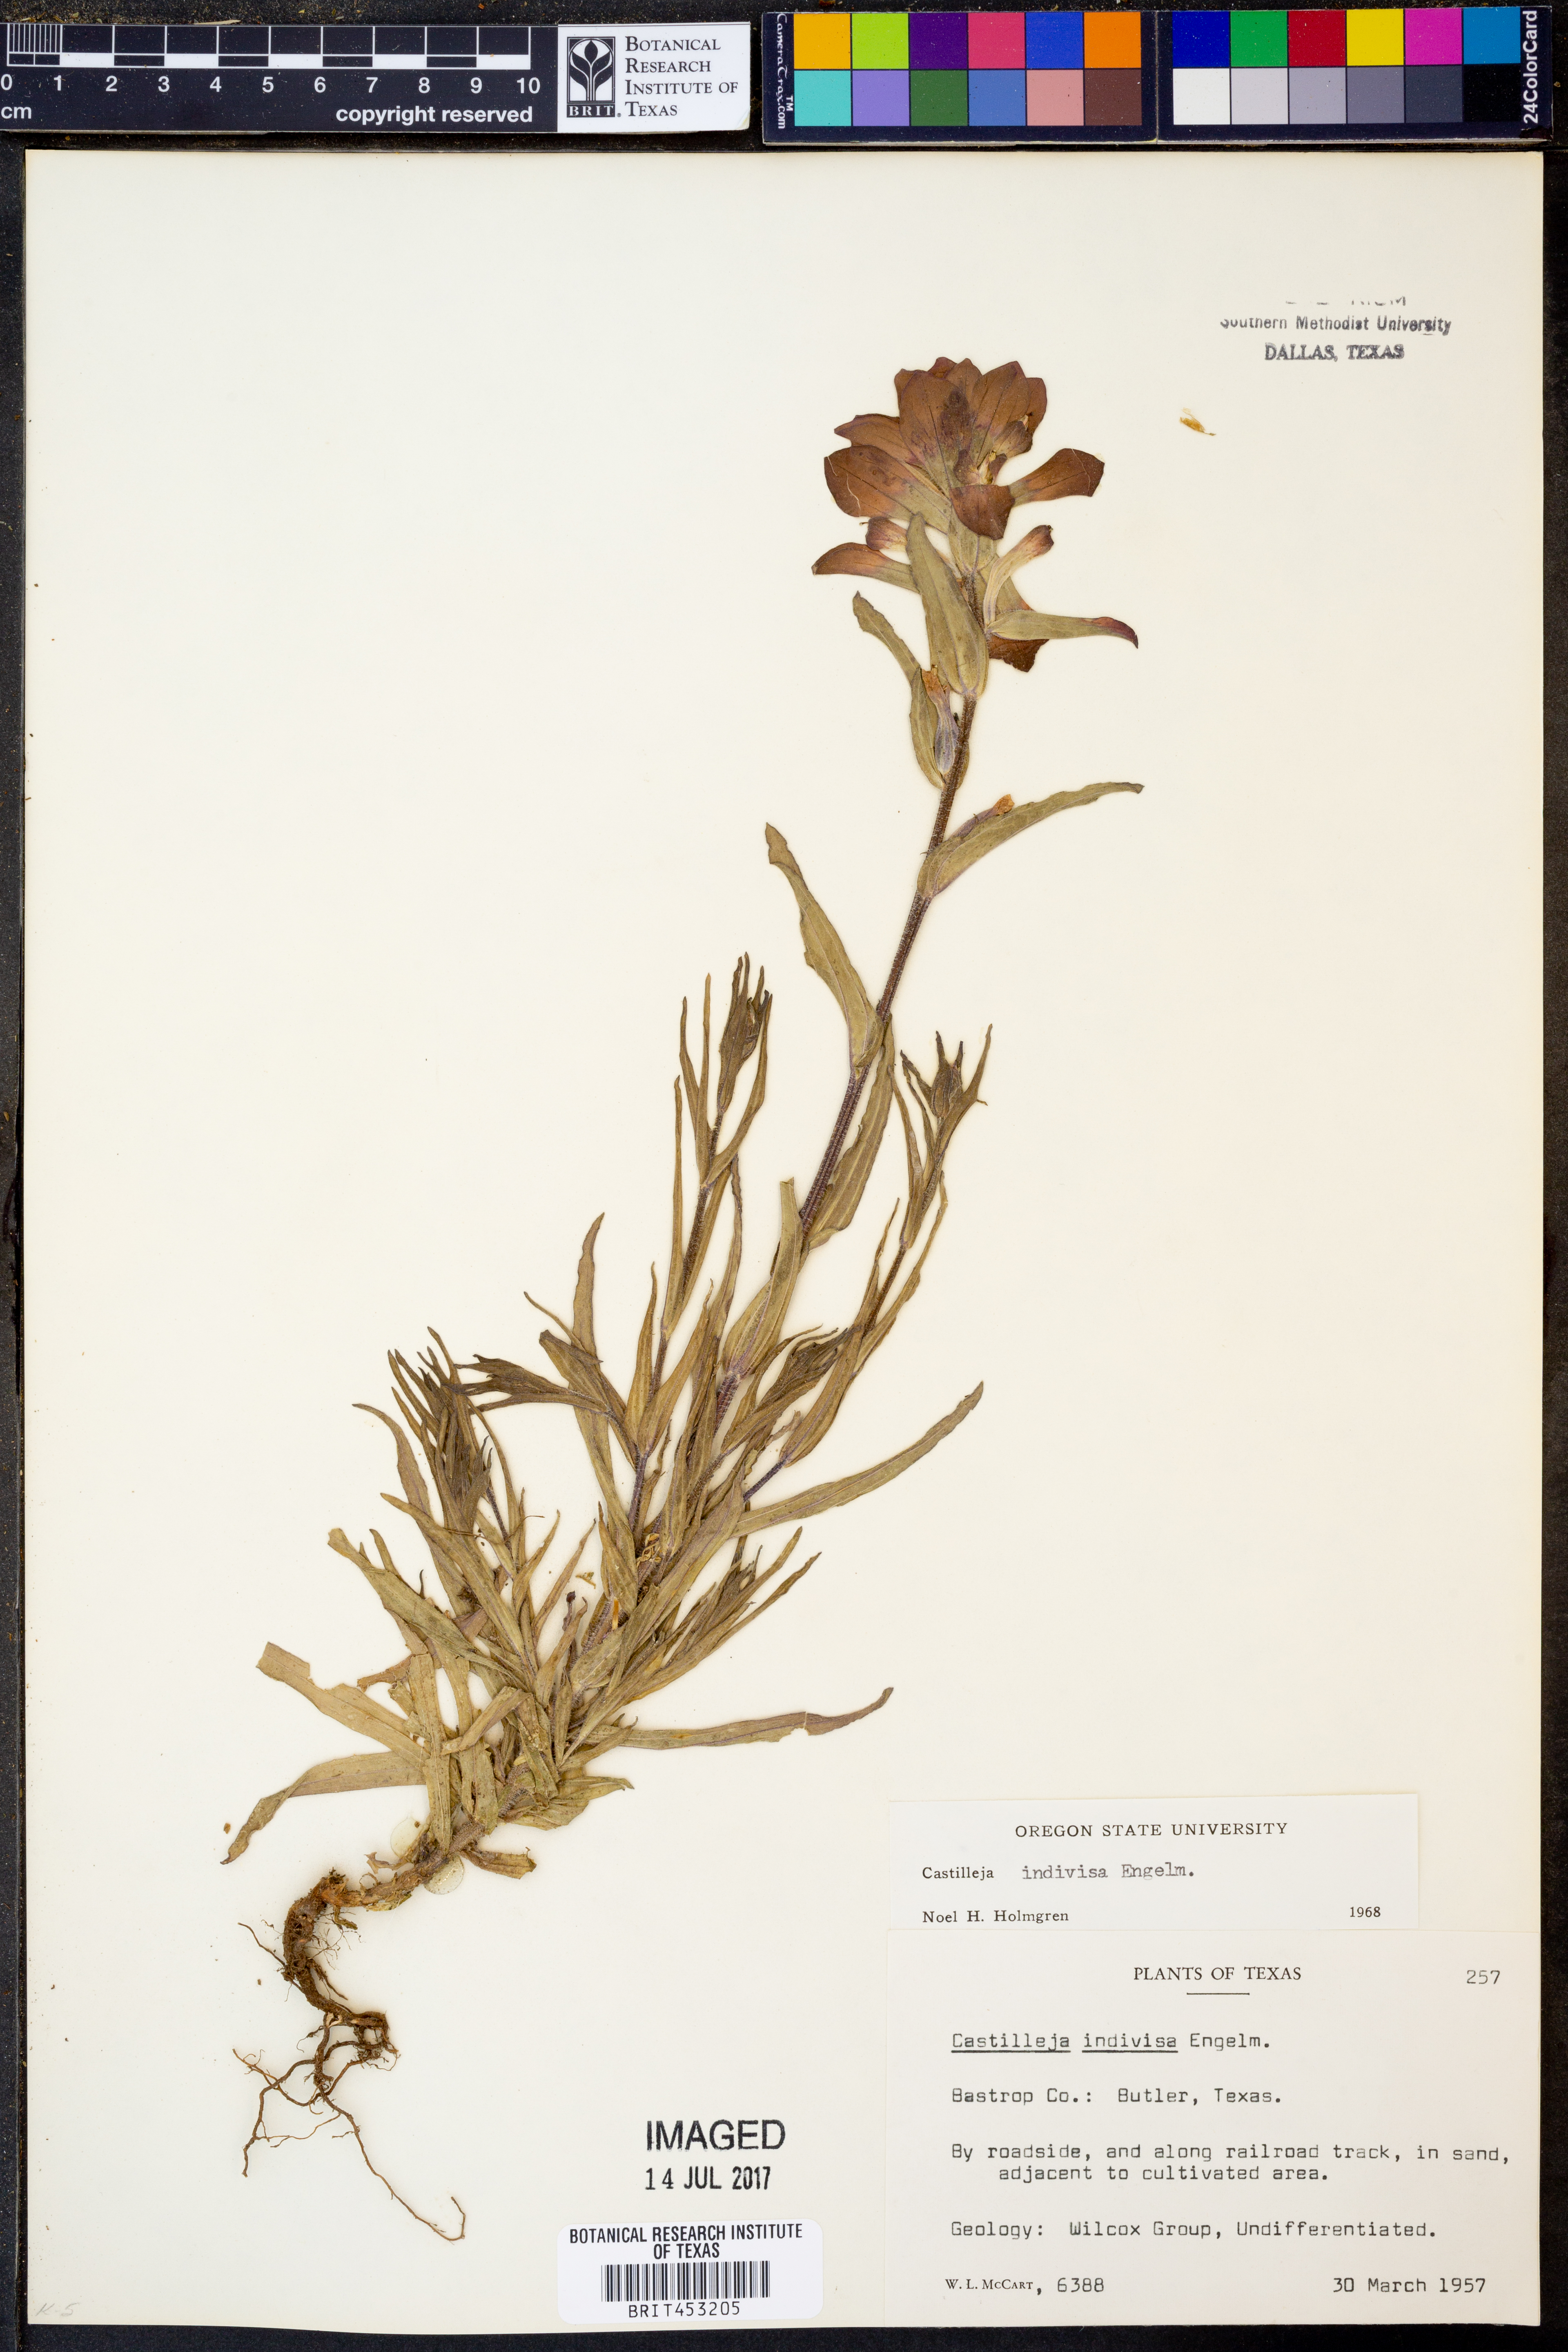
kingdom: Plantae
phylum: Tracheophyta
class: Magnoliopsida
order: Lamiales
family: Orobanchaceae
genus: Castilleja
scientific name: Castilleja indivisa
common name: Texas paintbrush
